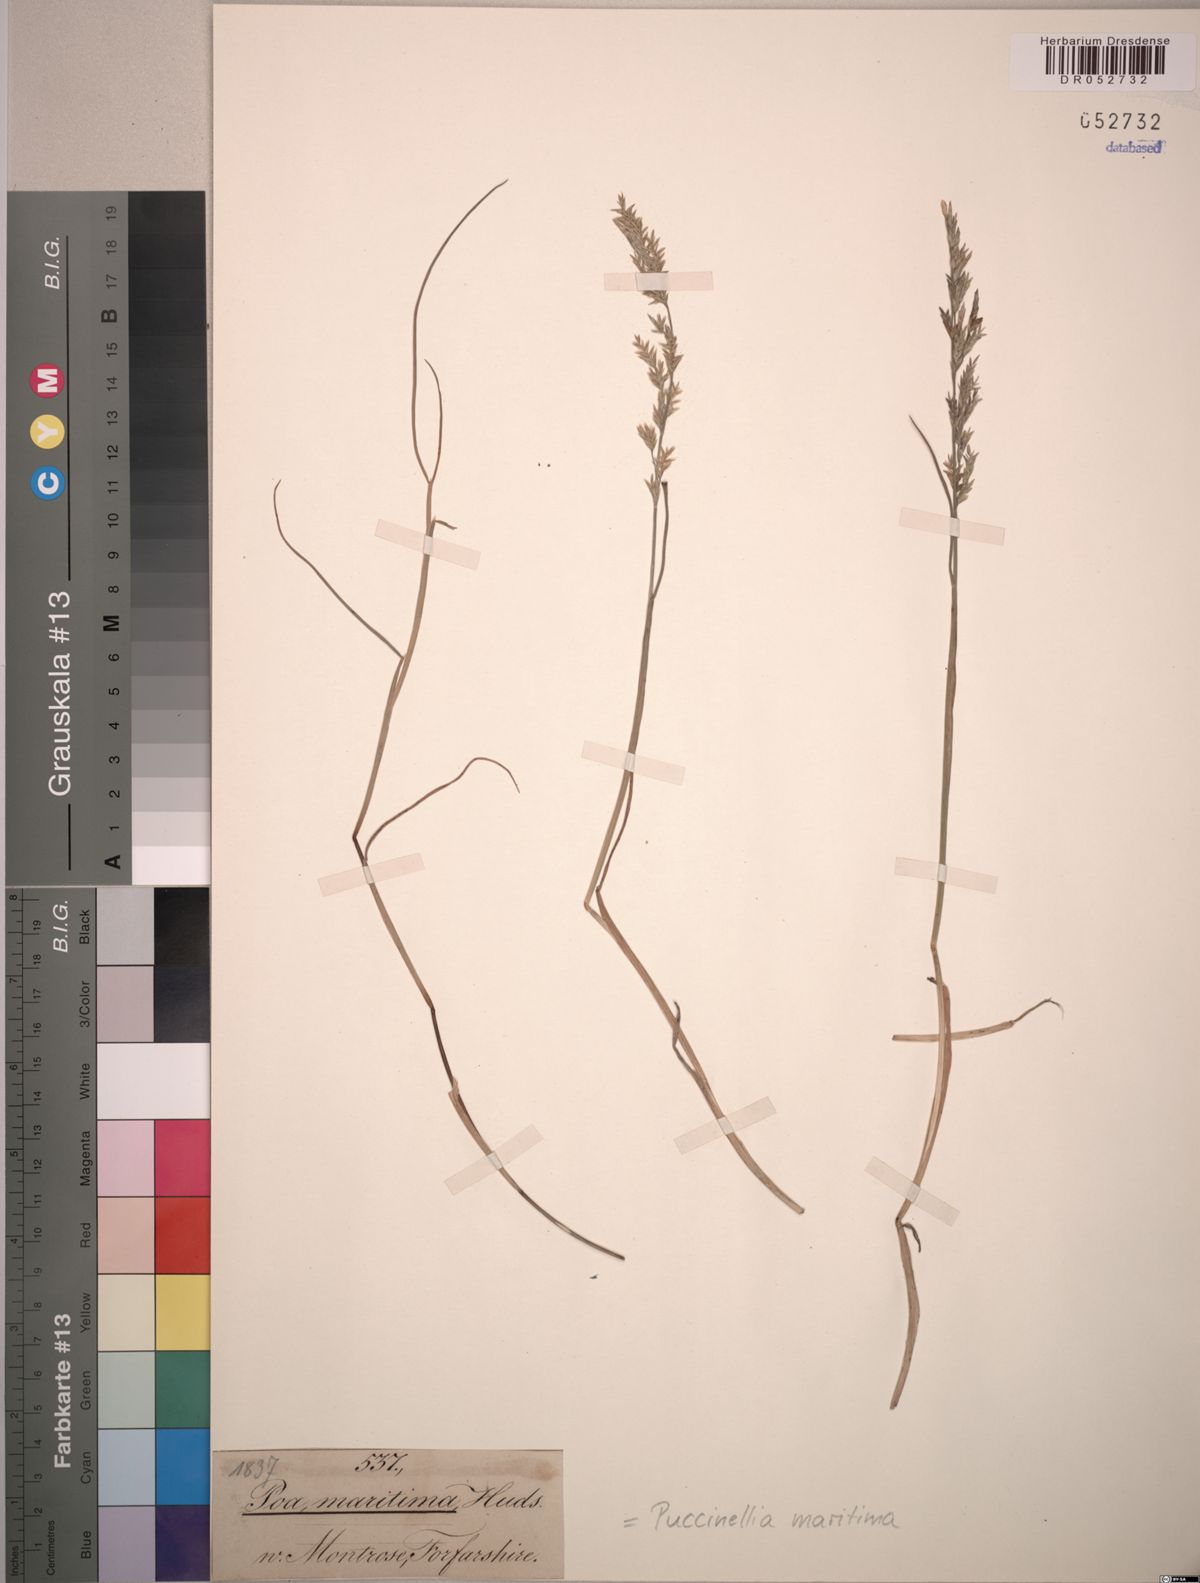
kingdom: Plantae
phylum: Tracheophyta
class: Liliopsida
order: Poales
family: Poaceae
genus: Puccinellia
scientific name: Puccinellia maritima
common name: Common saltmarsh grass
